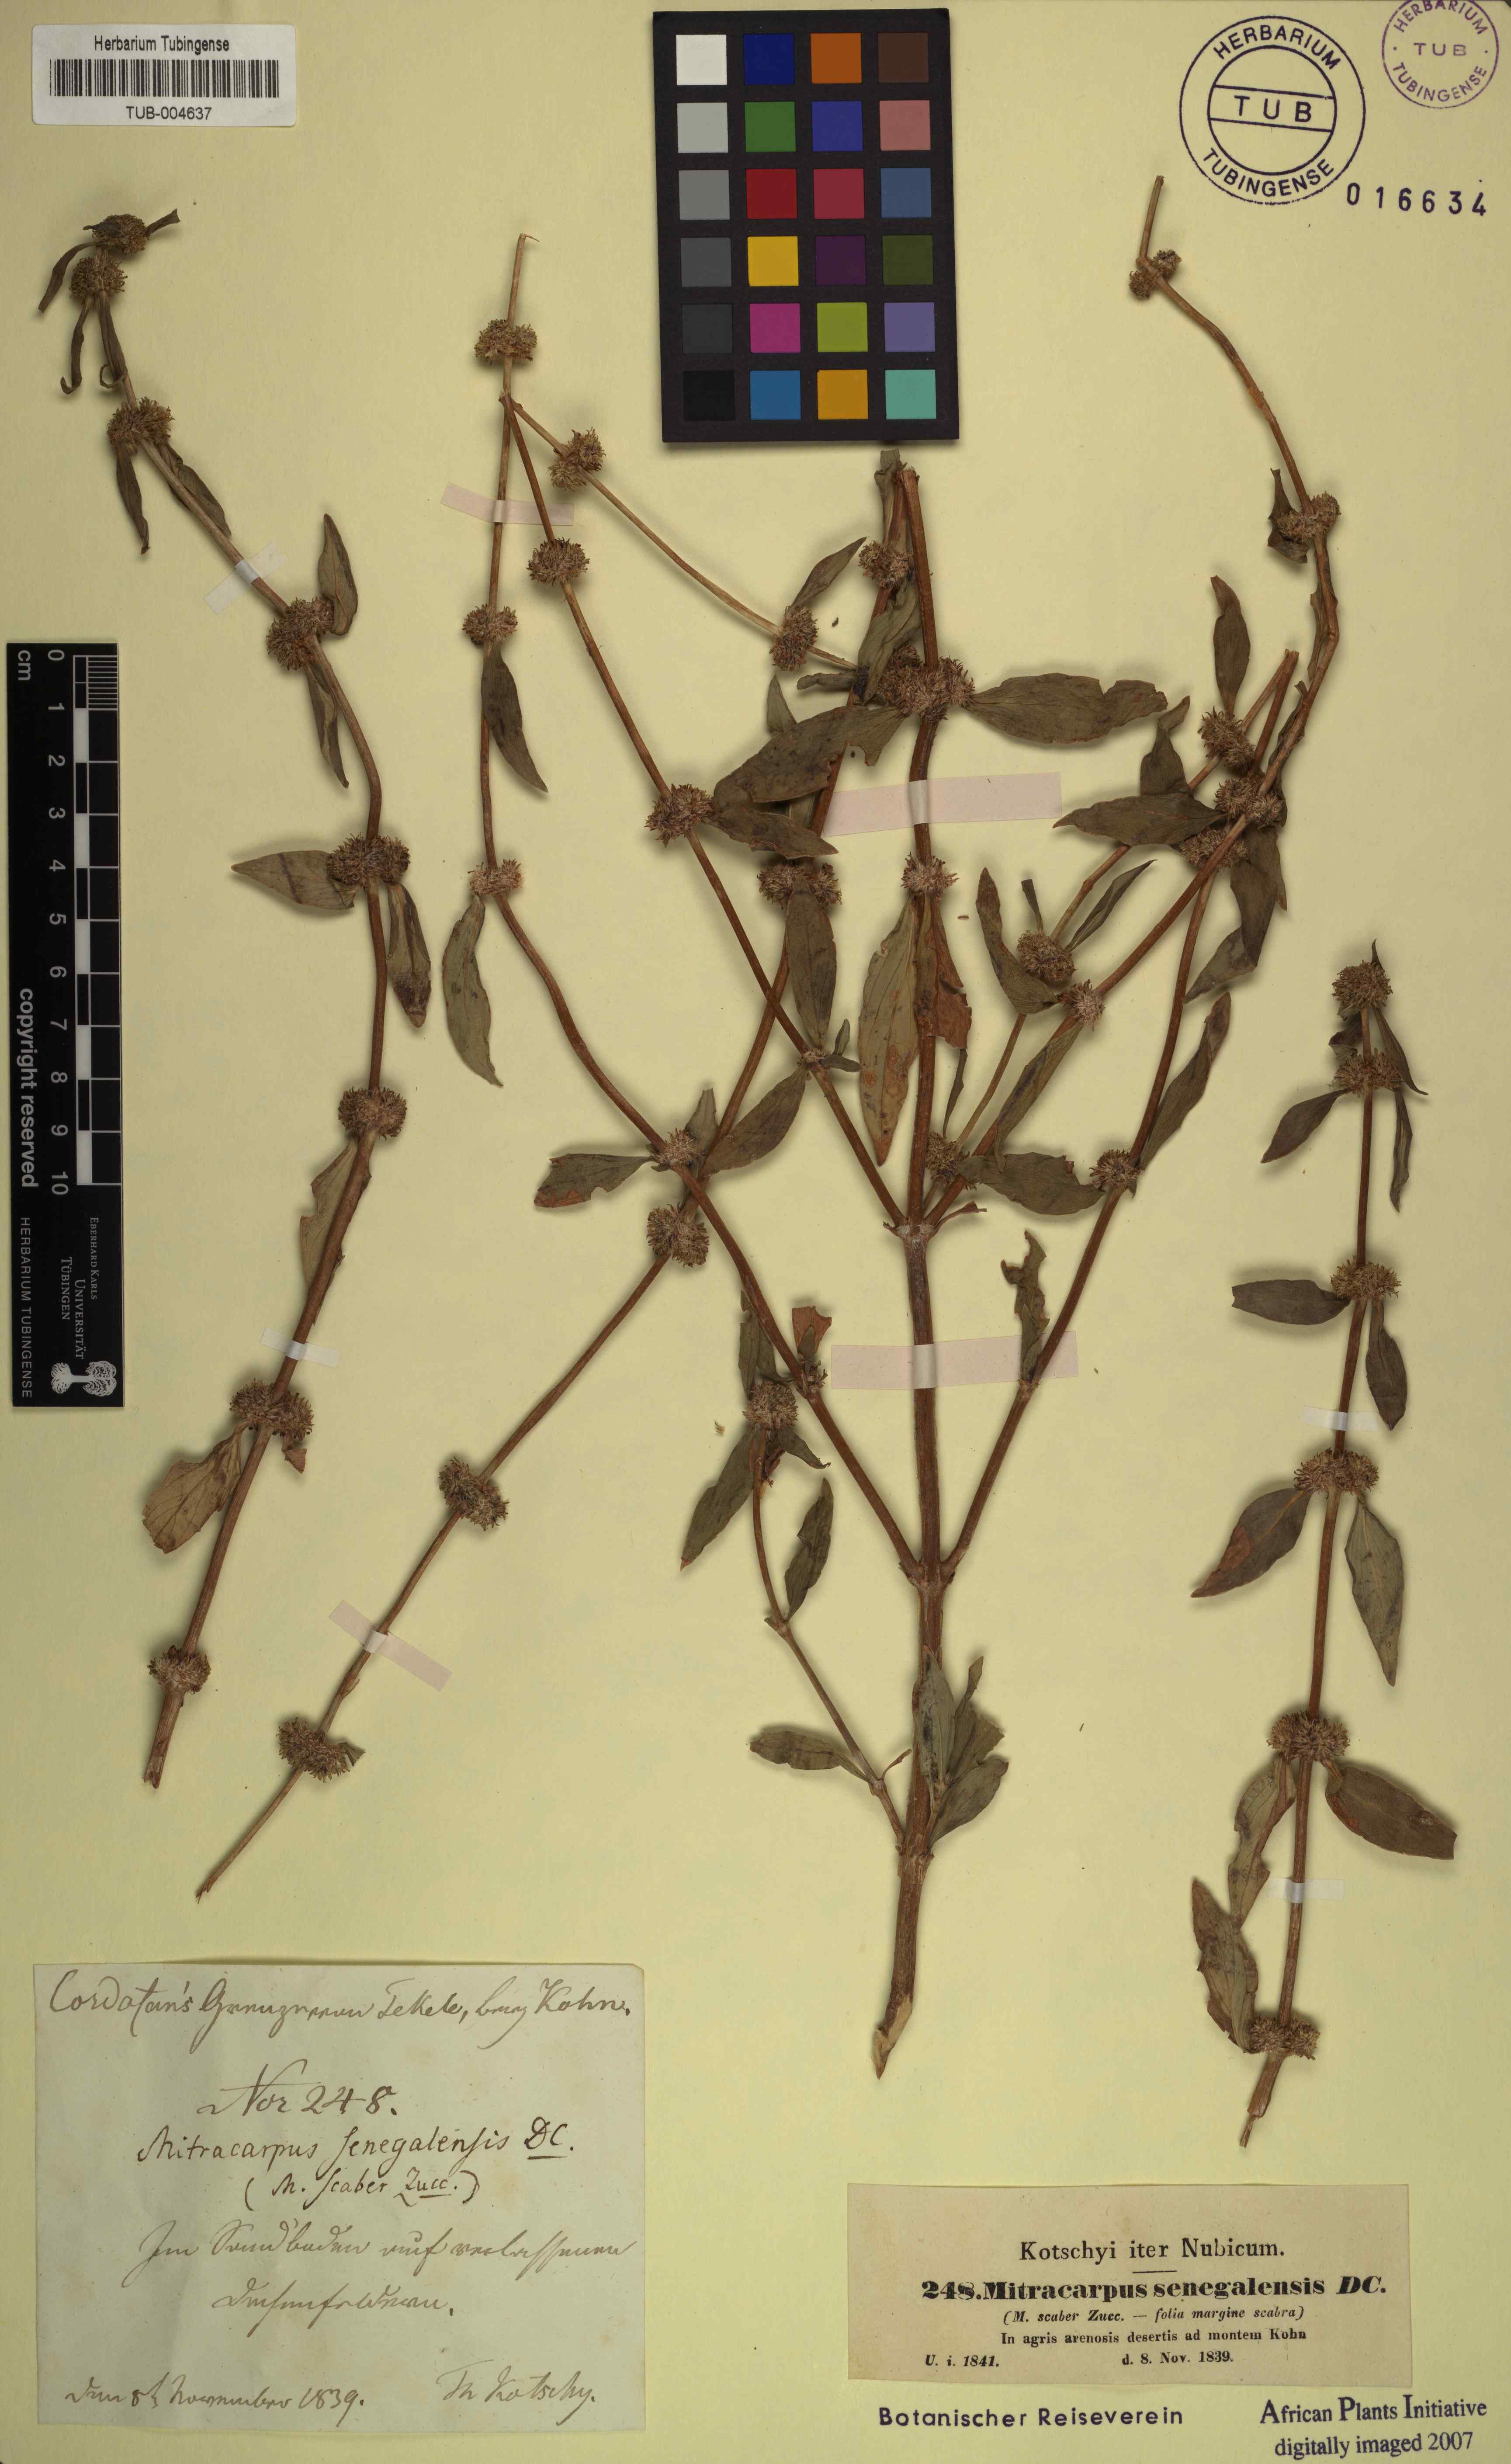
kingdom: Plantae
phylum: Tracheophyta
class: Magnoliopsida
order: Gentianales
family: Rubiaceae
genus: Mitracarpus
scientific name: Mitracarpus hirtus
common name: Tropical girdlepod
